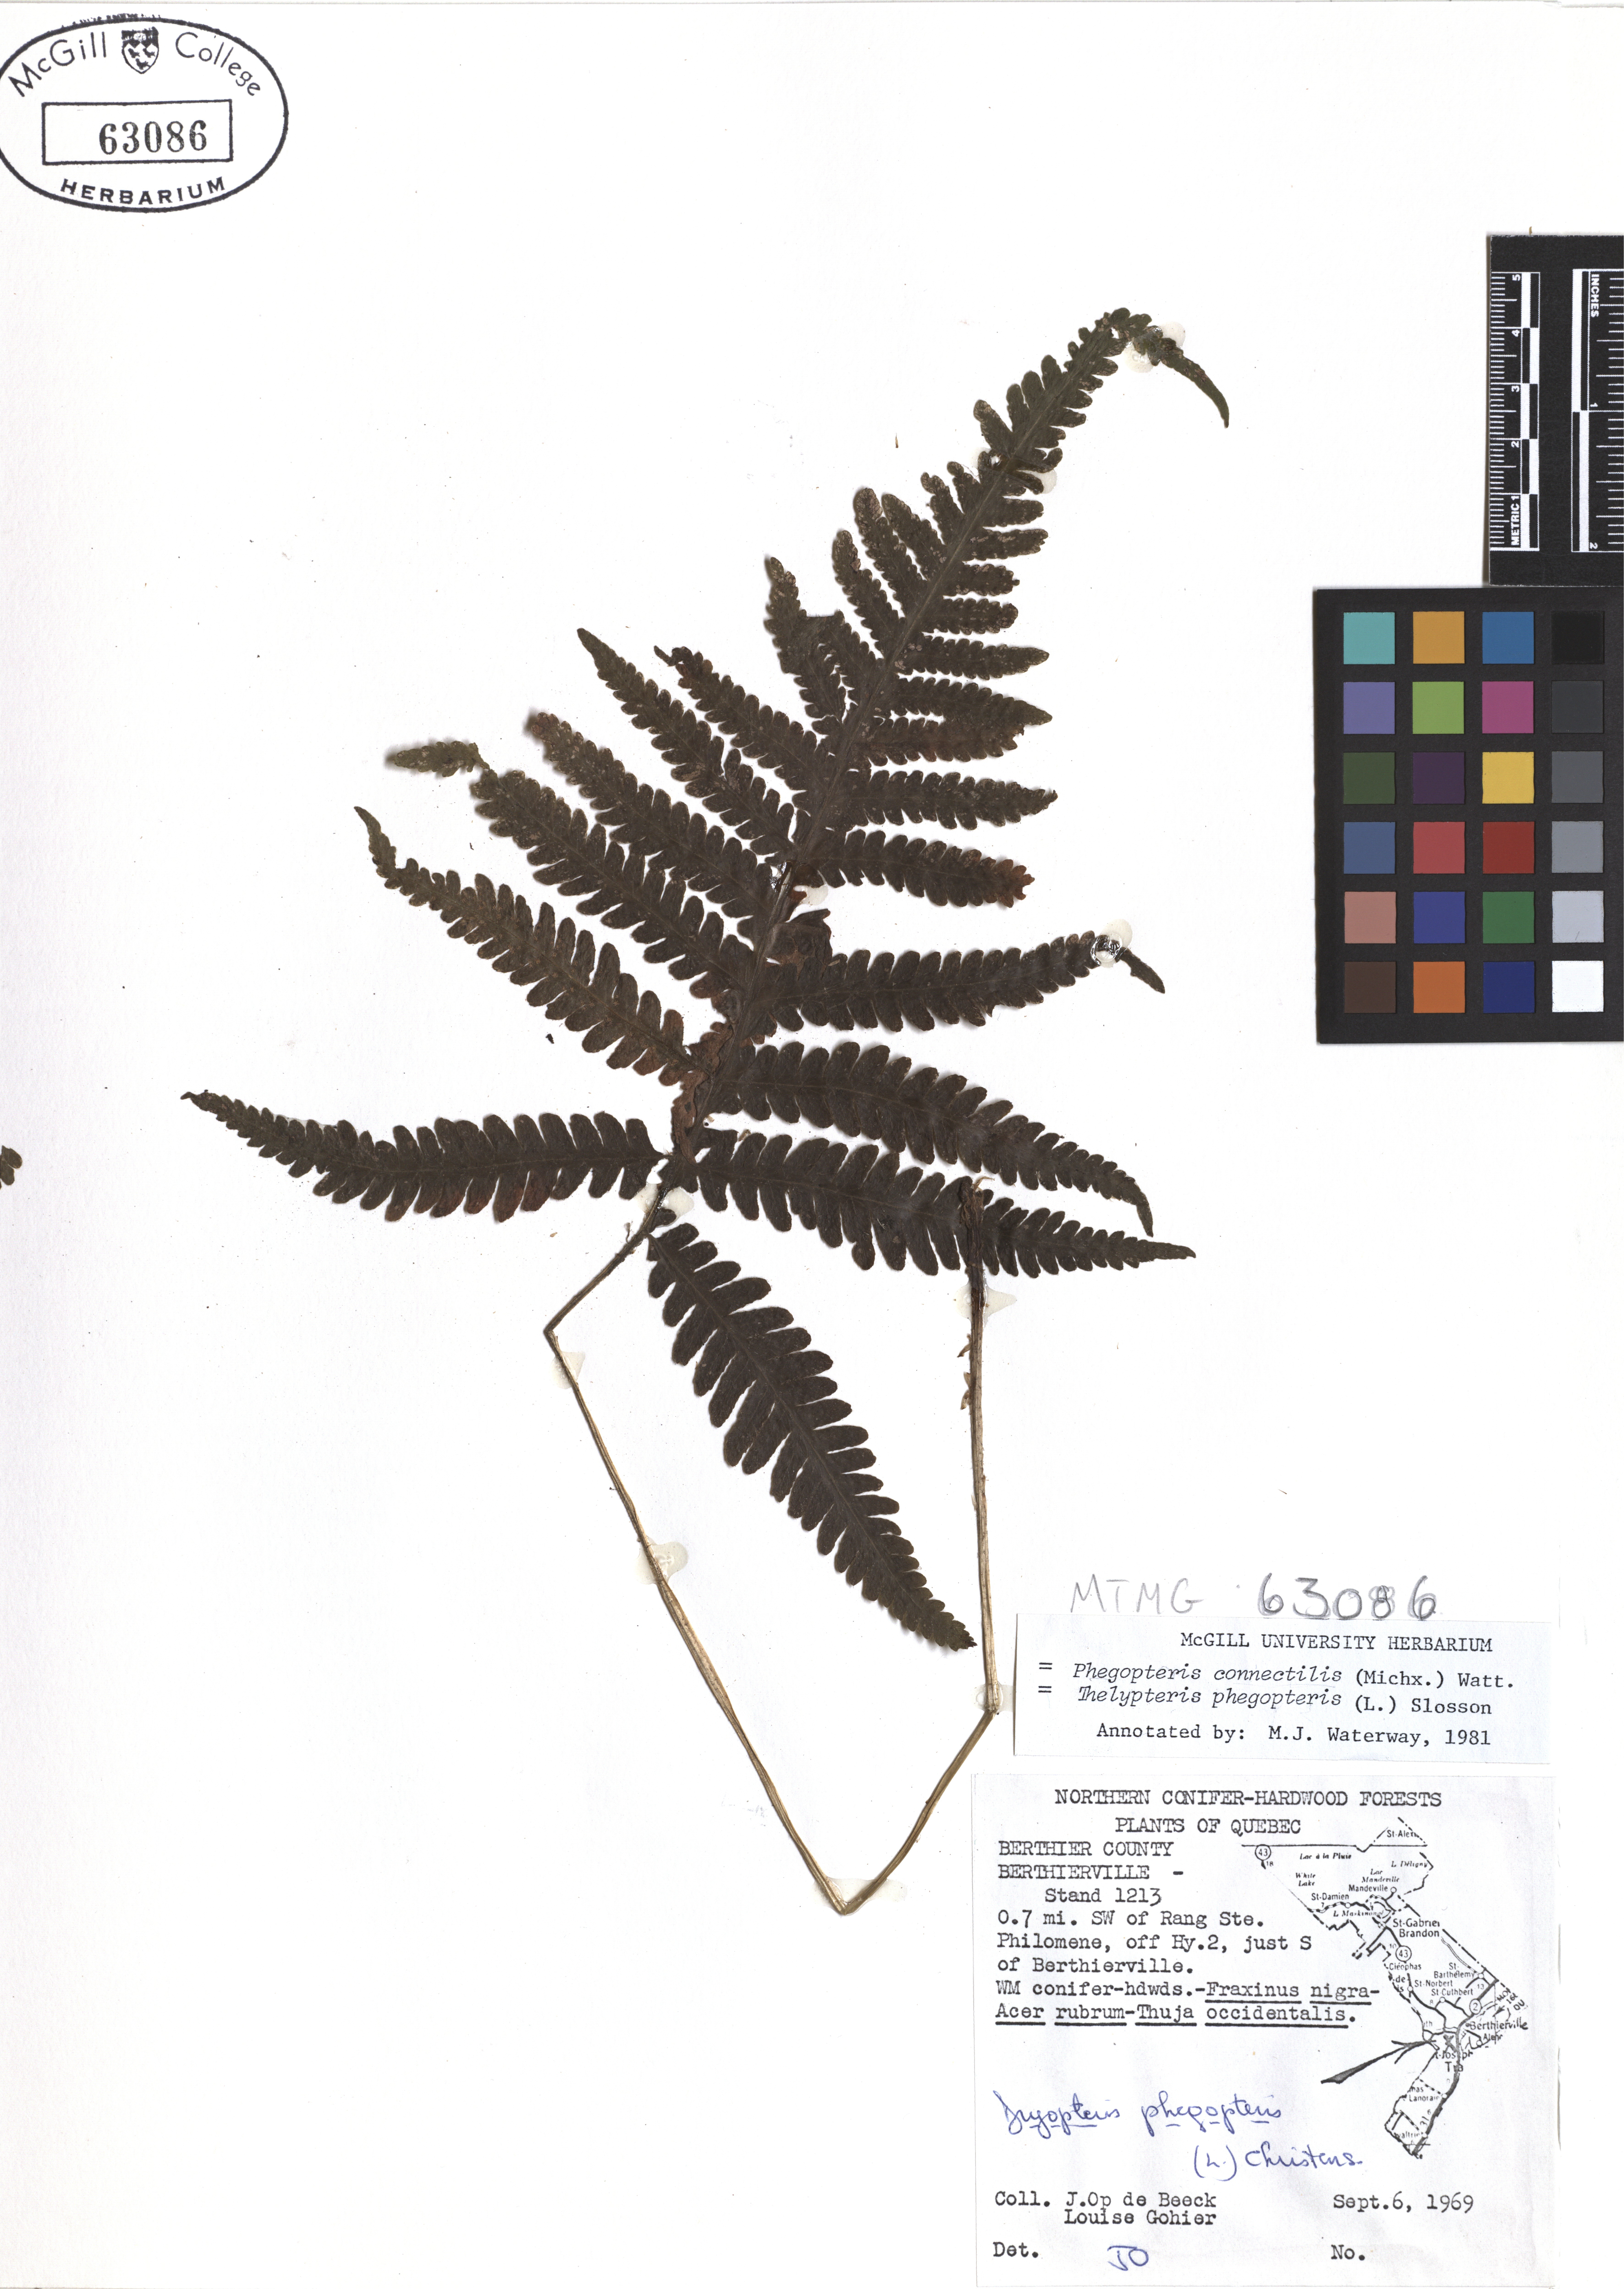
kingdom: Plantae
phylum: Tracheophyta
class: Polypodiopsida
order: Polypodiales
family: Thelypteridaceae
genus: Phegopteris
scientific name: Phegopteris connectilis
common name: Beech fern
